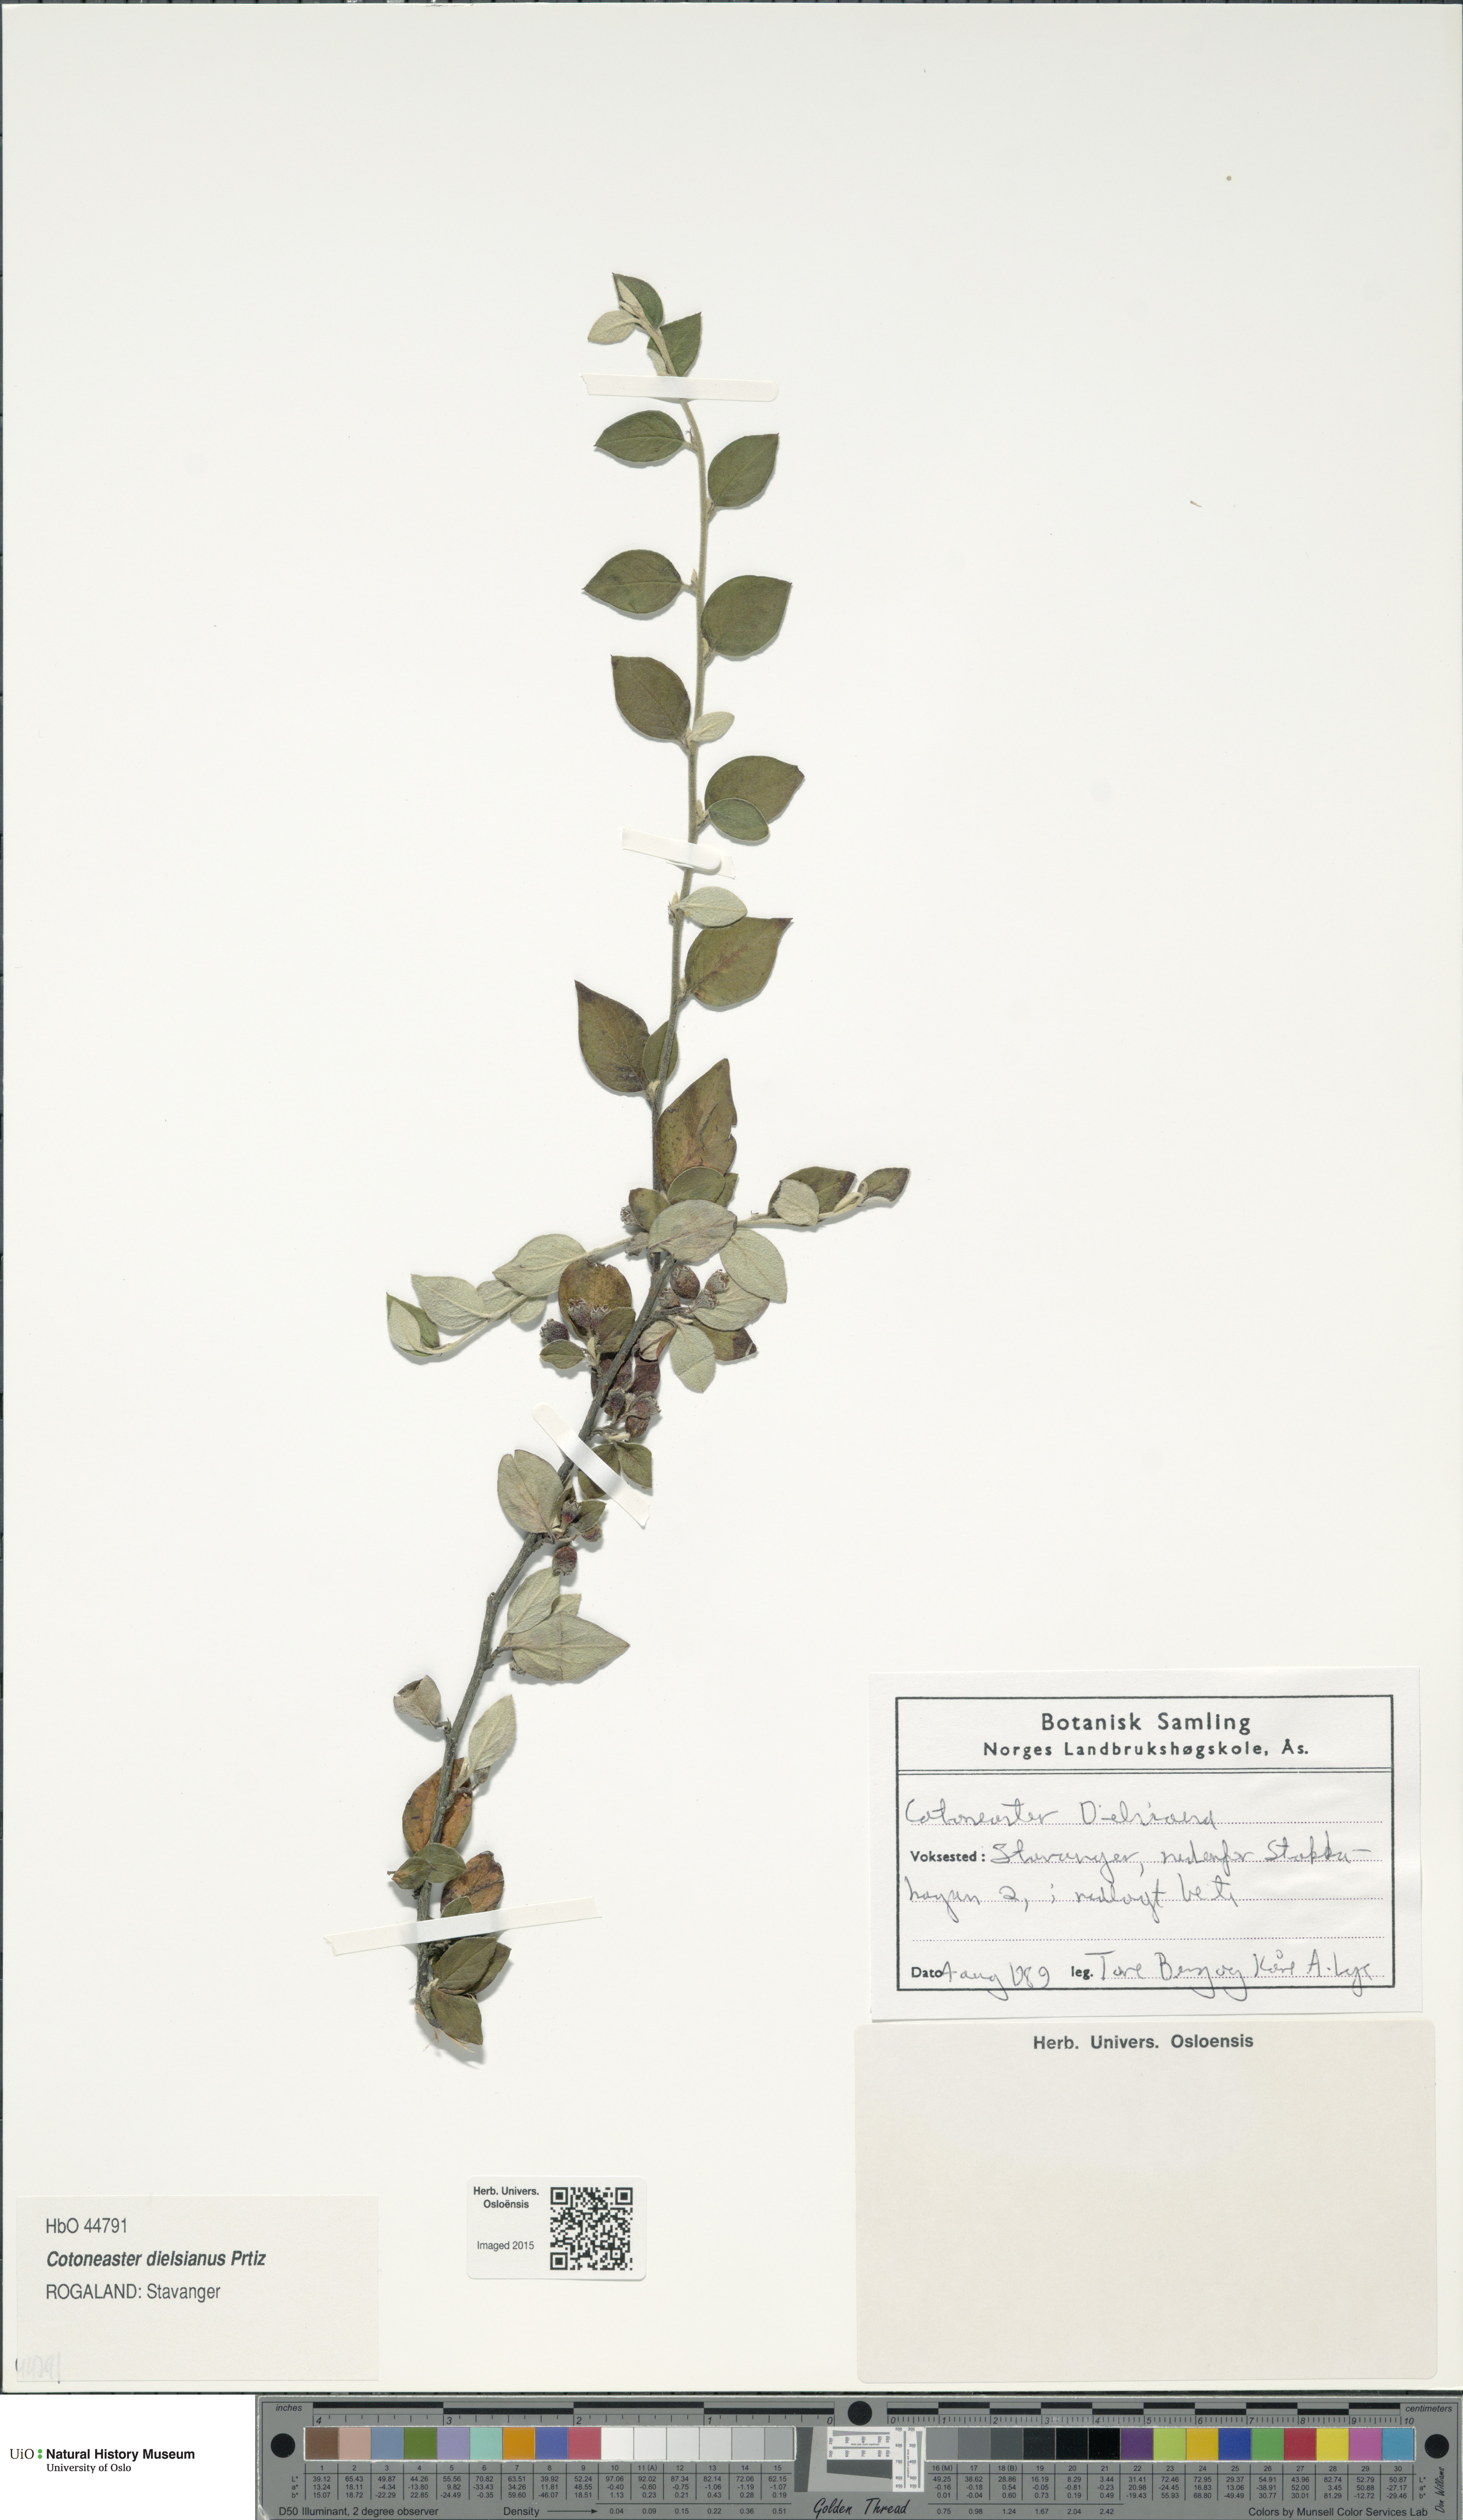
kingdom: Plantae
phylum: Tracheophyta
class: Magnoliopsida
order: Rosales
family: Rosaceae
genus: Cotoneaster
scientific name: Cotoneaster dielsianus
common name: Diels's cotoneaster
